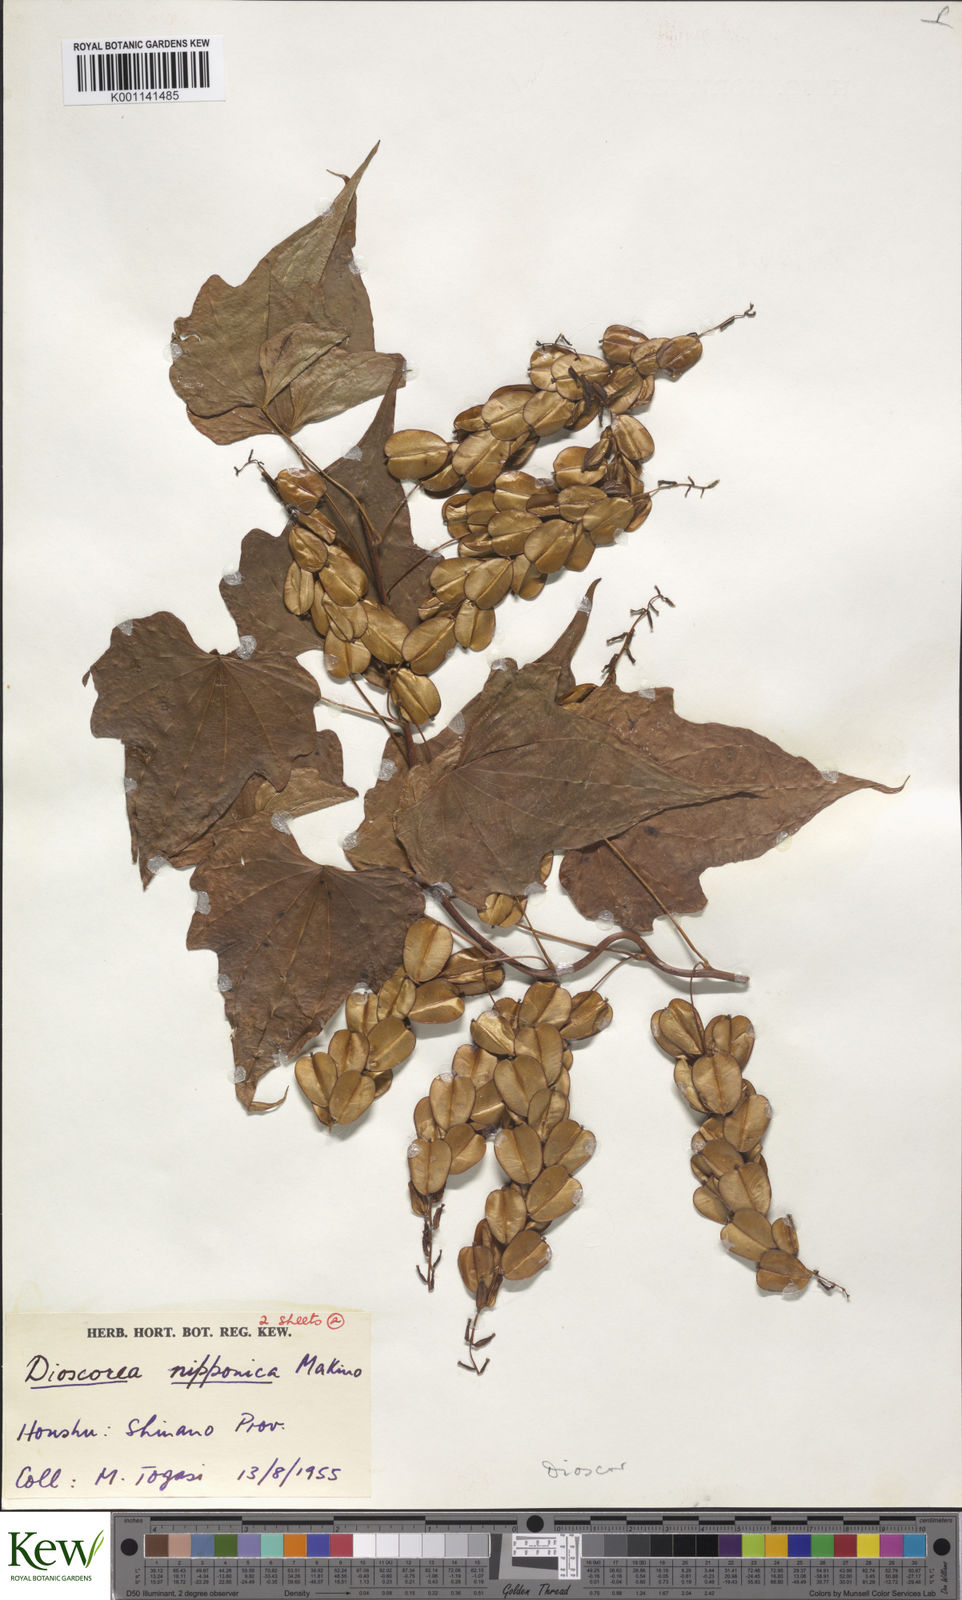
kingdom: Plantae
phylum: Tracheophyta
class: Liliopsida
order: Dioscoreales
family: Dioscoreaceae
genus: Dioscorea
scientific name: Dioscorea nipponica
